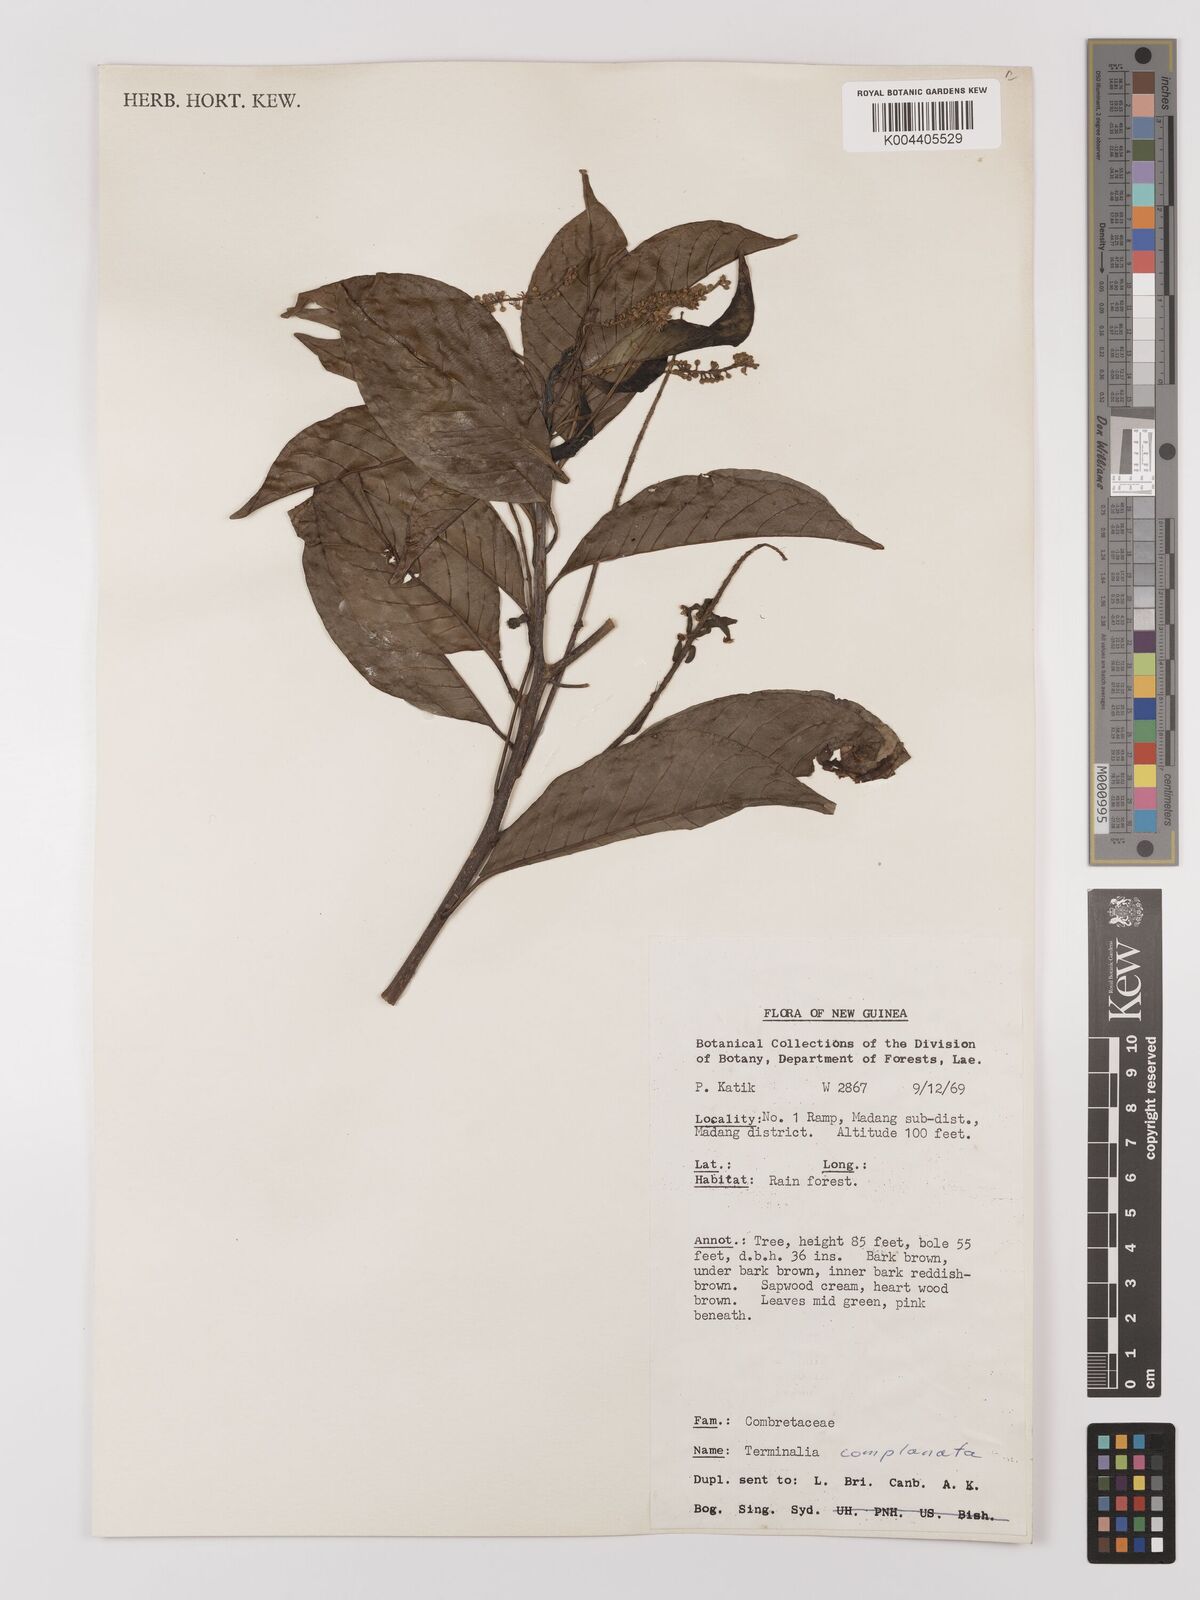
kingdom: Plantae
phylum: Tracheophyta
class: Magnoliopsida
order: Myrtales
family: Combretaceae
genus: Terminalia
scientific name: Terminalia
